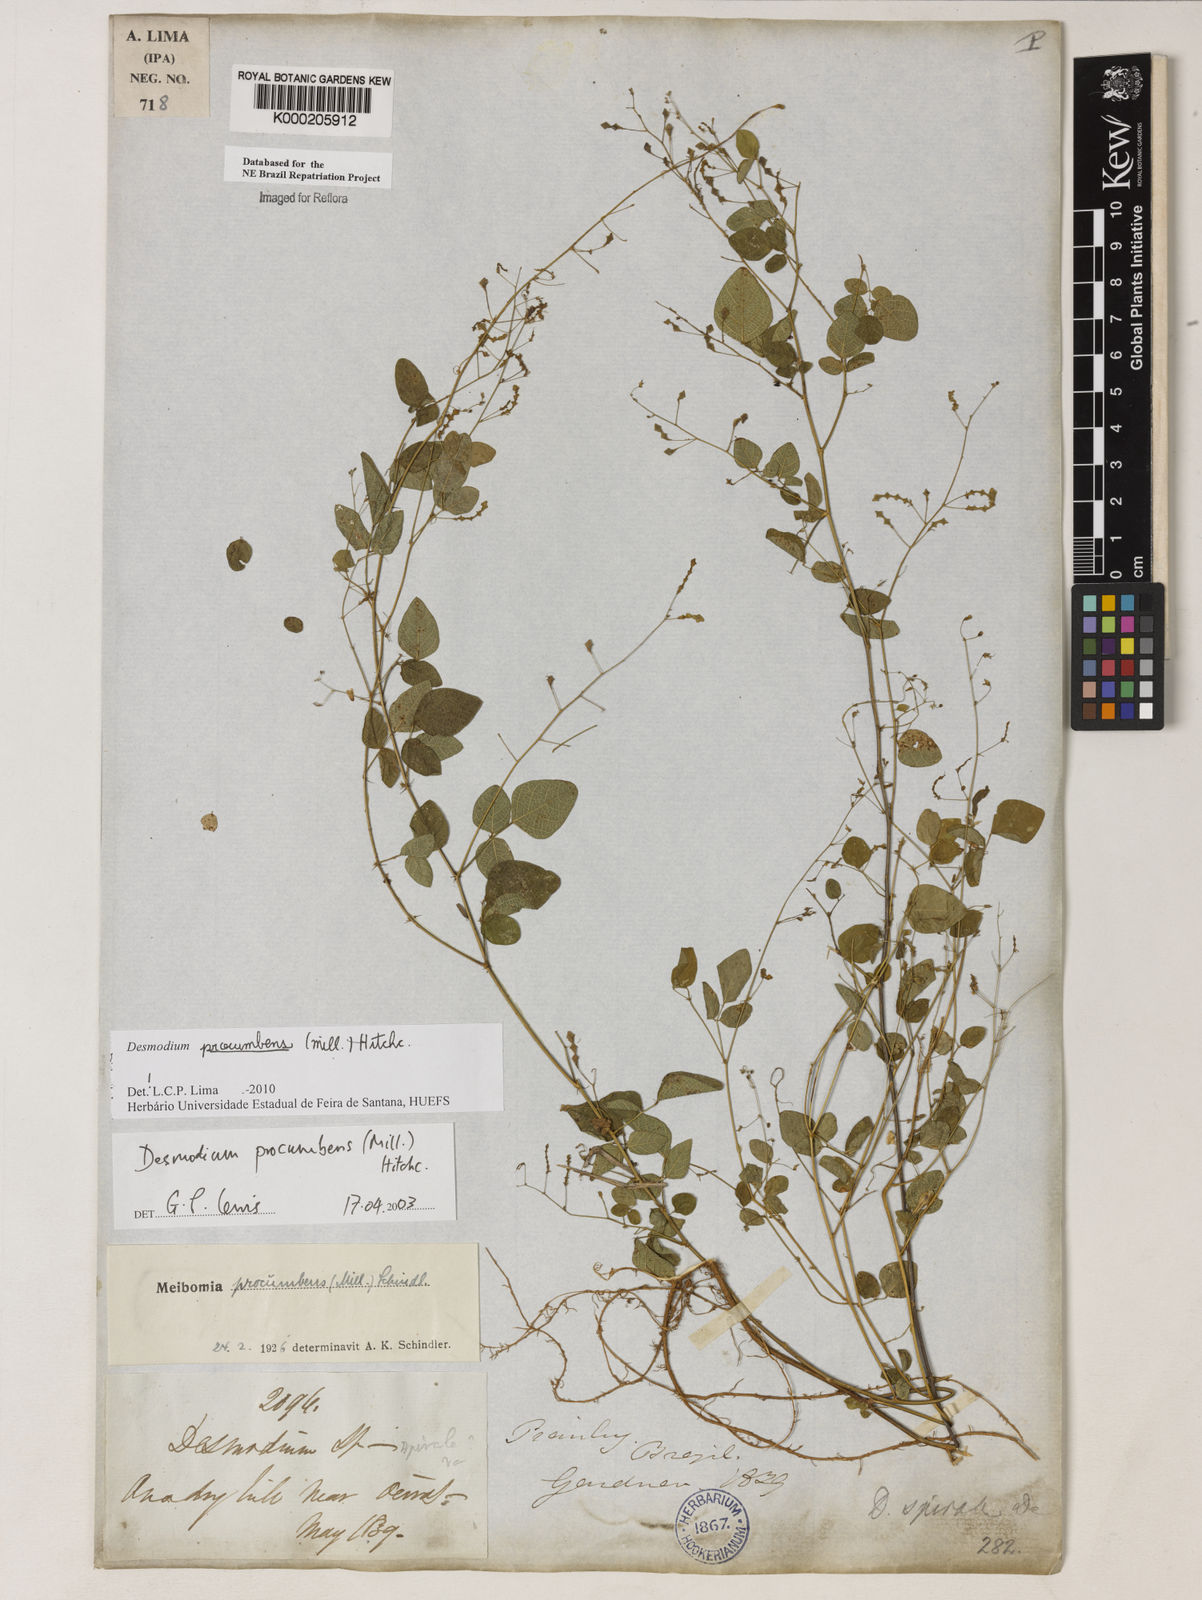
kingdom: Plantae
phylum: Tracheophyta
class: Magnoliopsida
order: Fabales
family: Fabaceae
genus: Desmodium
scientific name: Desmodium procumbens
